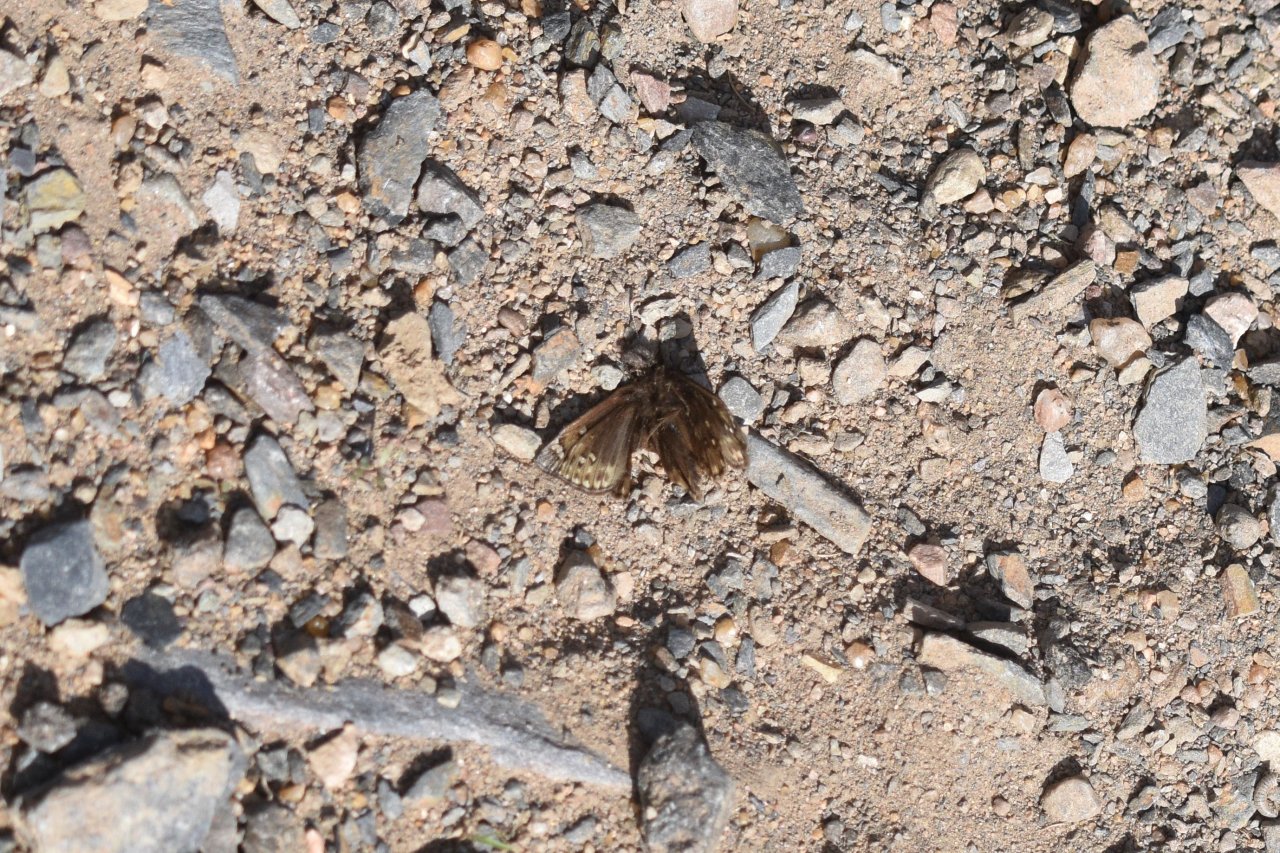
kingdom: Animalia
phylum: Arthropoda
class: Insecta
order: Lepidoptera
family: Hesperiidae
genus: Gesta
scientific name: Gesta
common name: Juvenal's Duskywing
